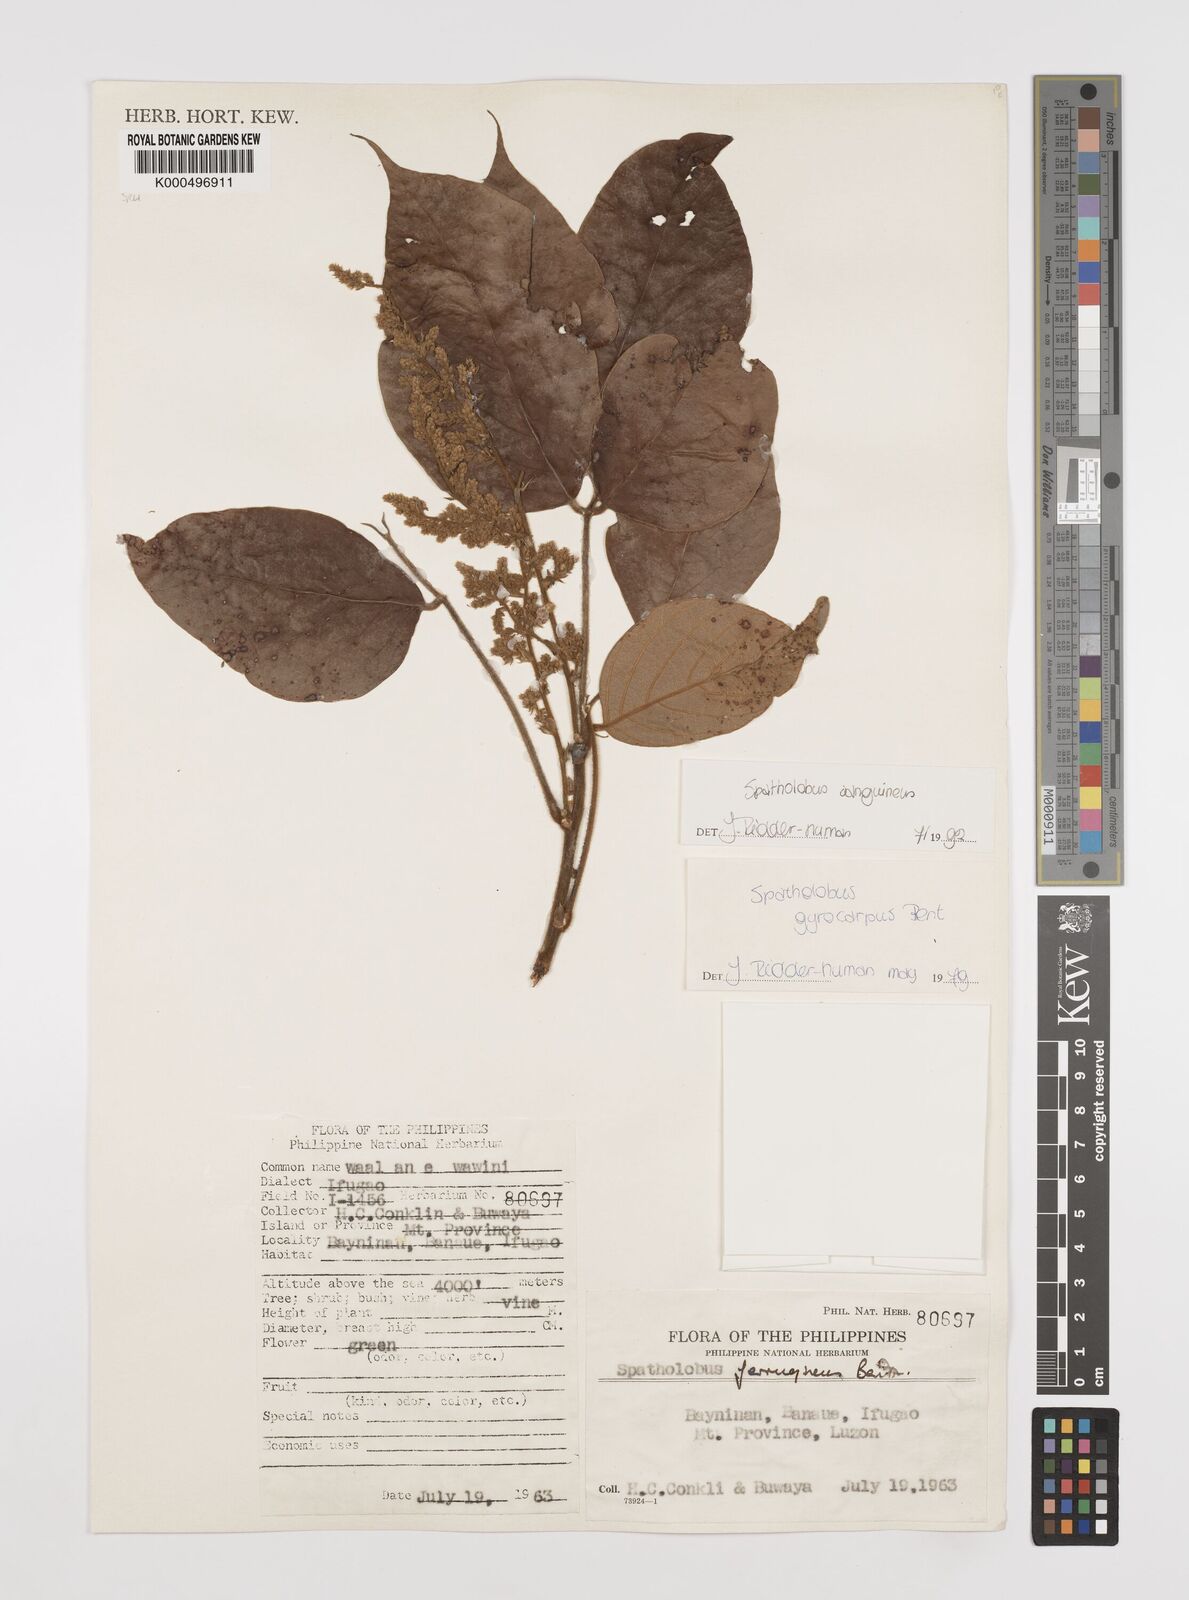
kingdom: Plantae
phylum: Tracheophyta
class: Magnoliopsida
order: Fabales
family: Fabaceae
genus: Spatholobus
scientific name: Spatholobus
